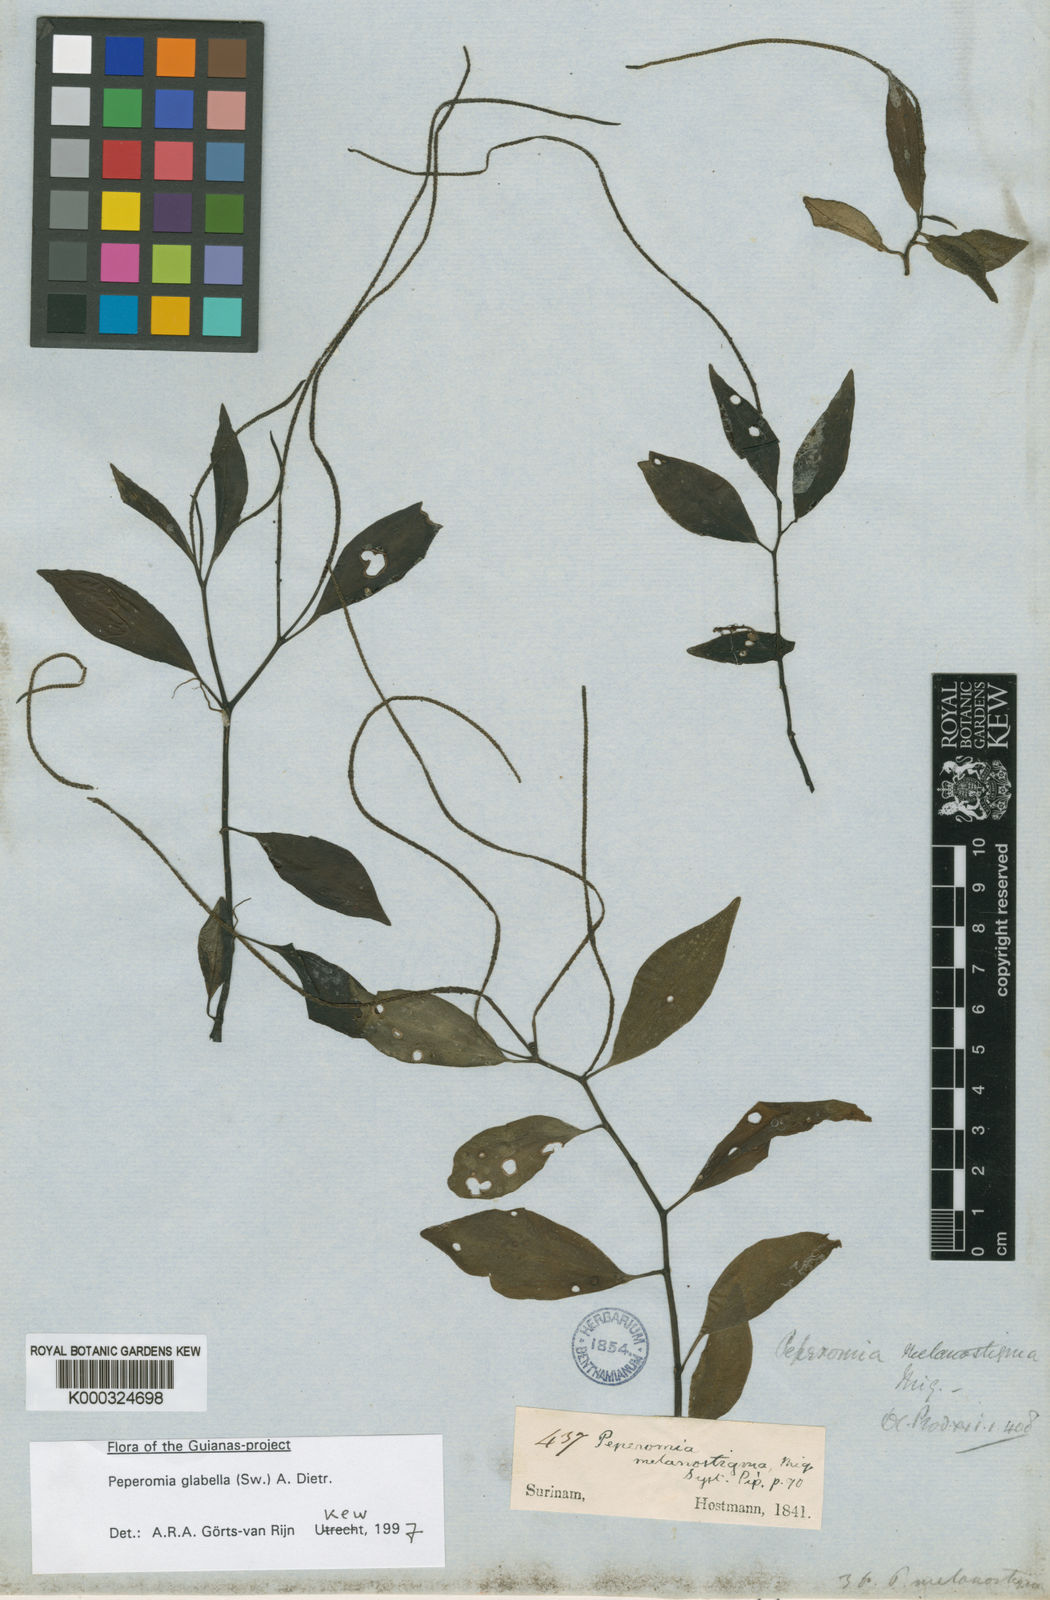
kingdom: Plantae
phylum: Tracheophyta
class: Magnoliopsida
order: Piperales
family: Piperaceae
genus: Peperomia
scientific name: Peperomia glabella
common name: Cypress peperomia
